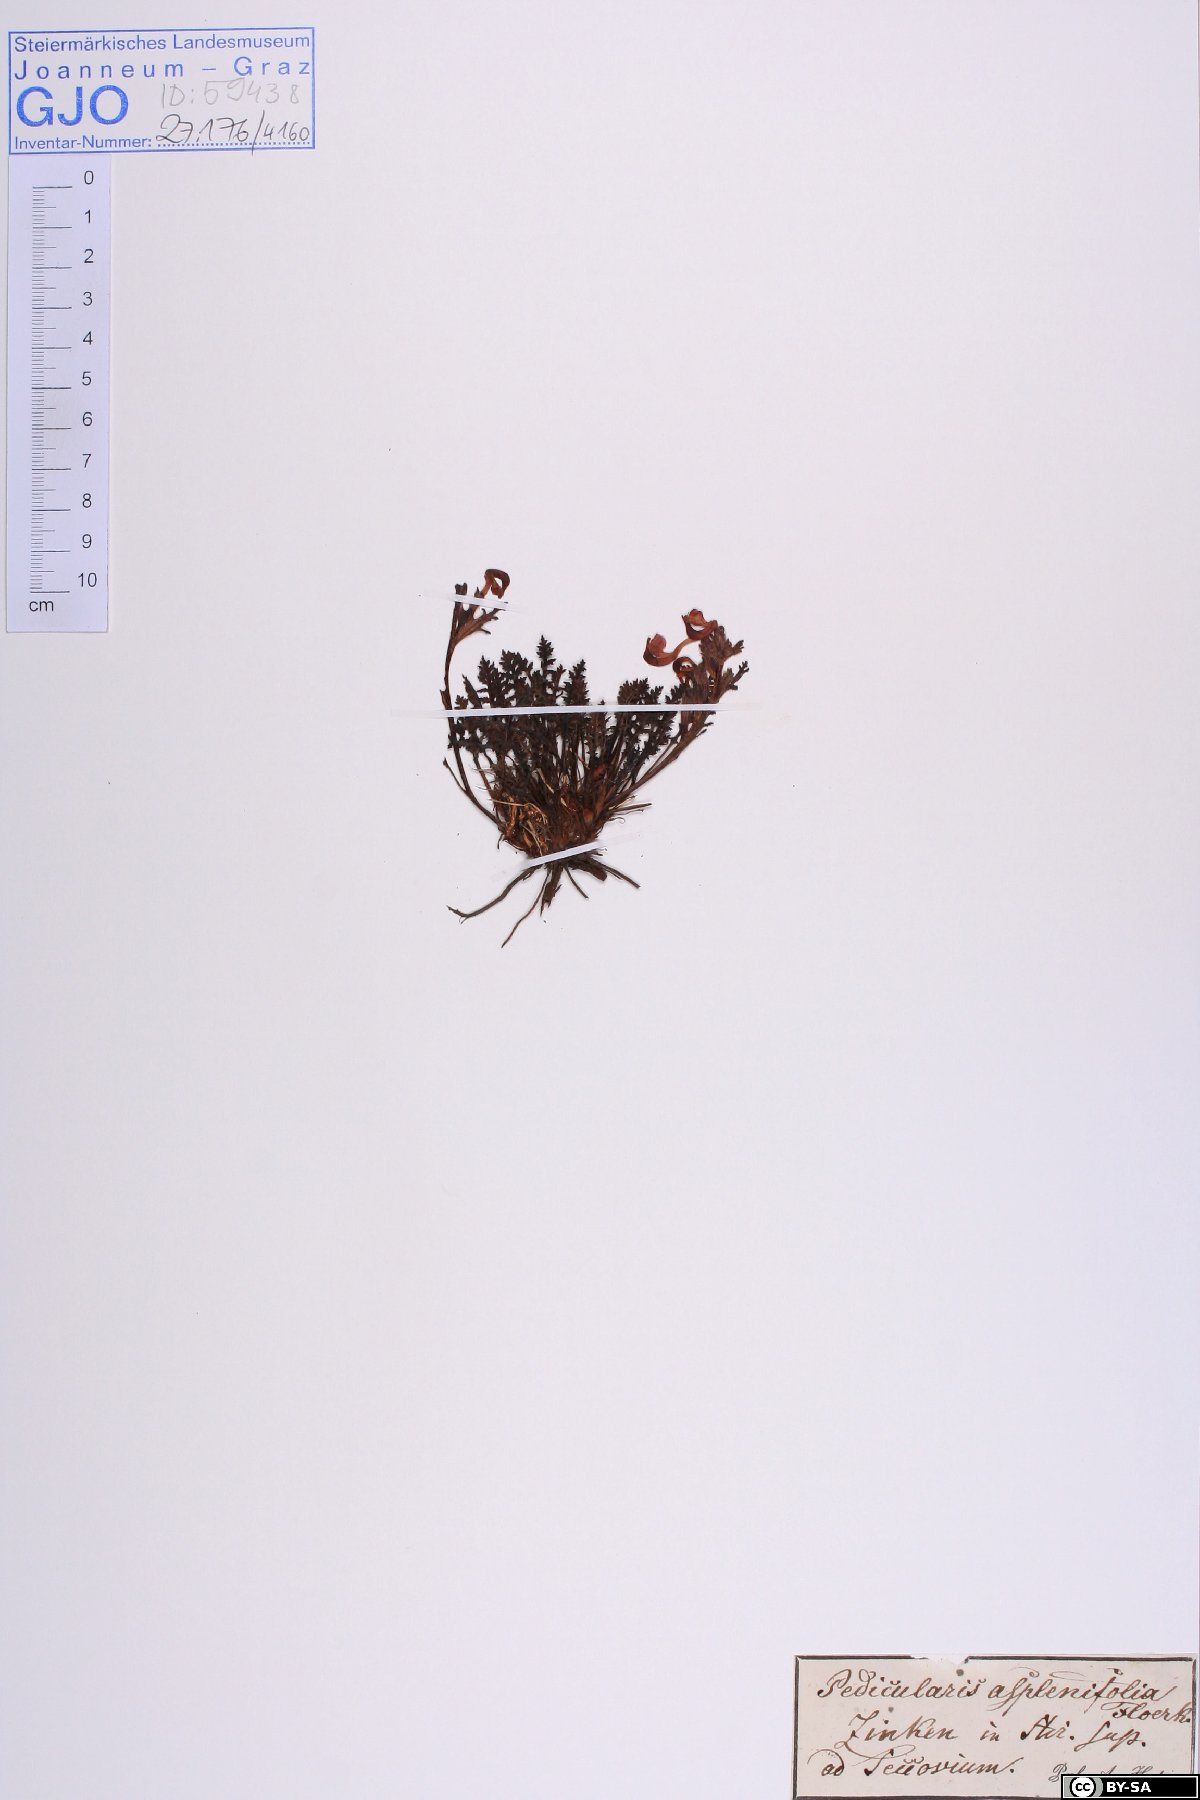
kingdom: Plantae
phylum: Tracheophyta
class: Magnoliopsida
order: Lamiales
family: Orobanchaceae
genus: Pedicularis
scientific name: Pedicularis asplenifolia
